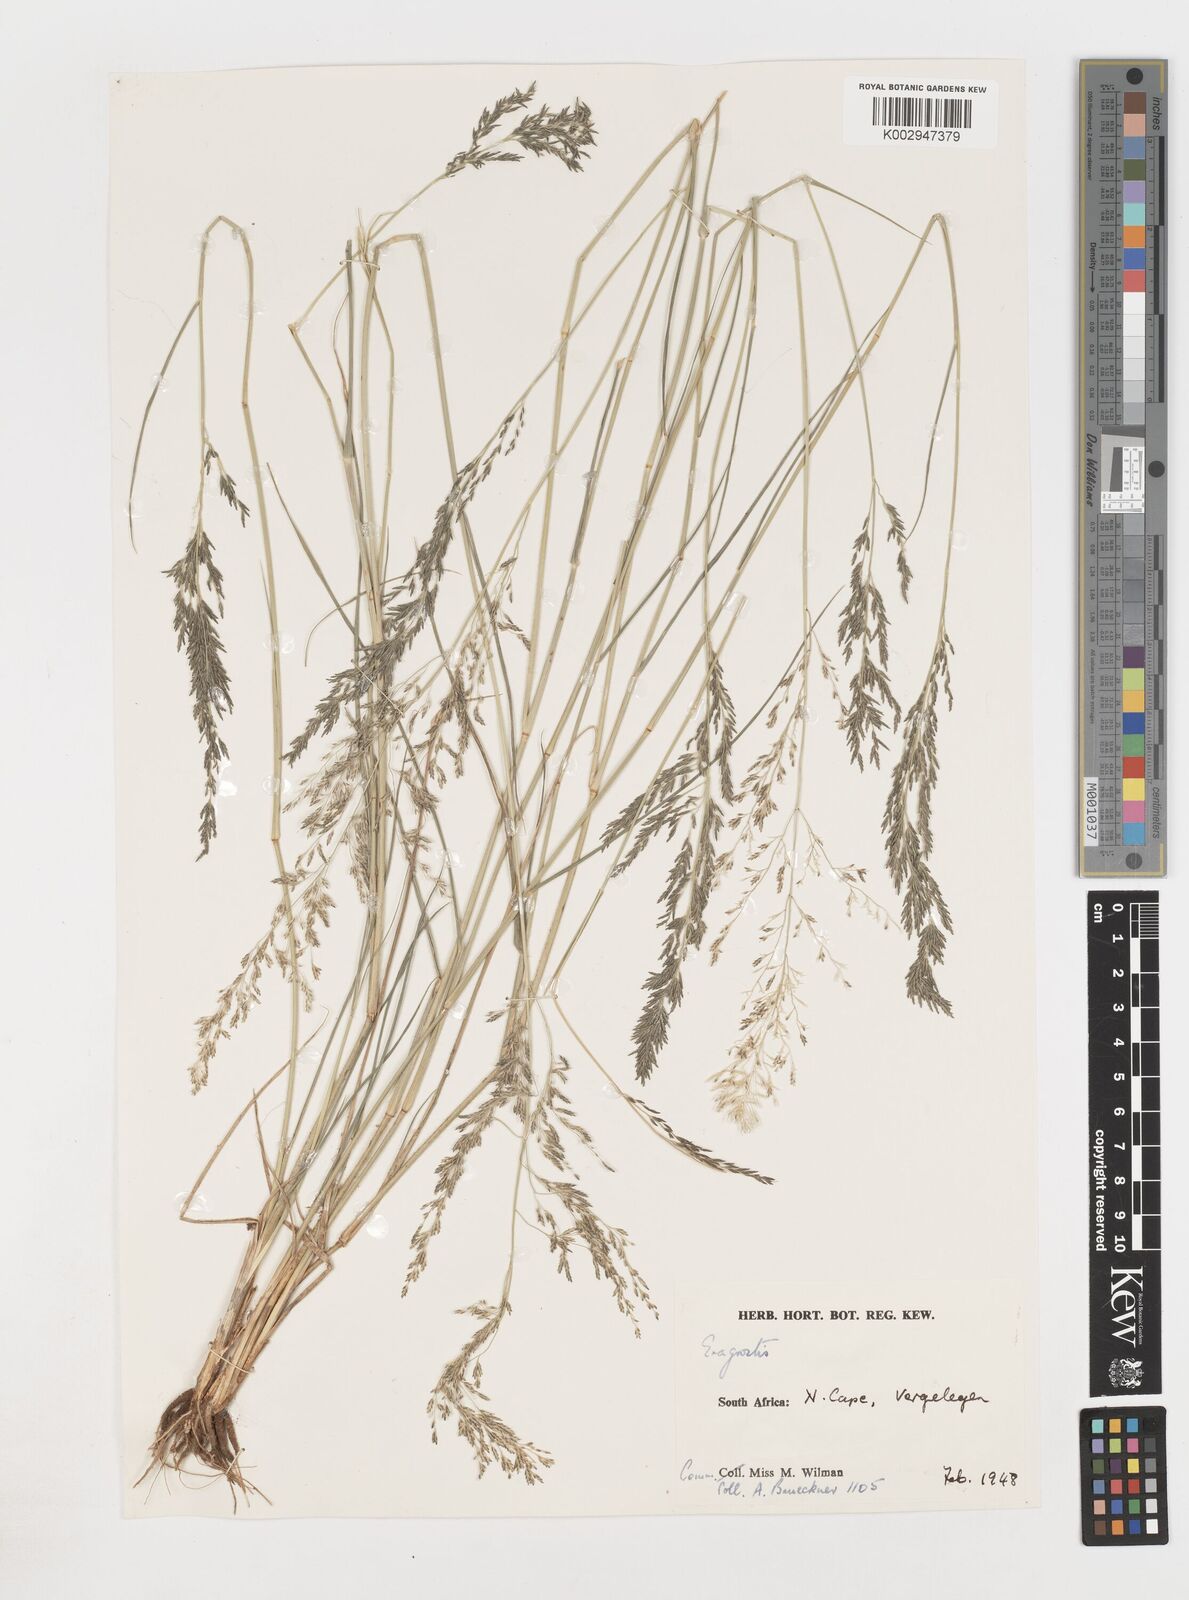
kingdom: Plantae
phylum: Tracheophyta
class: Liliopsida
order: Poales
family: Poaceae
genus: Eragrostis
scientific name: Eragrostis
